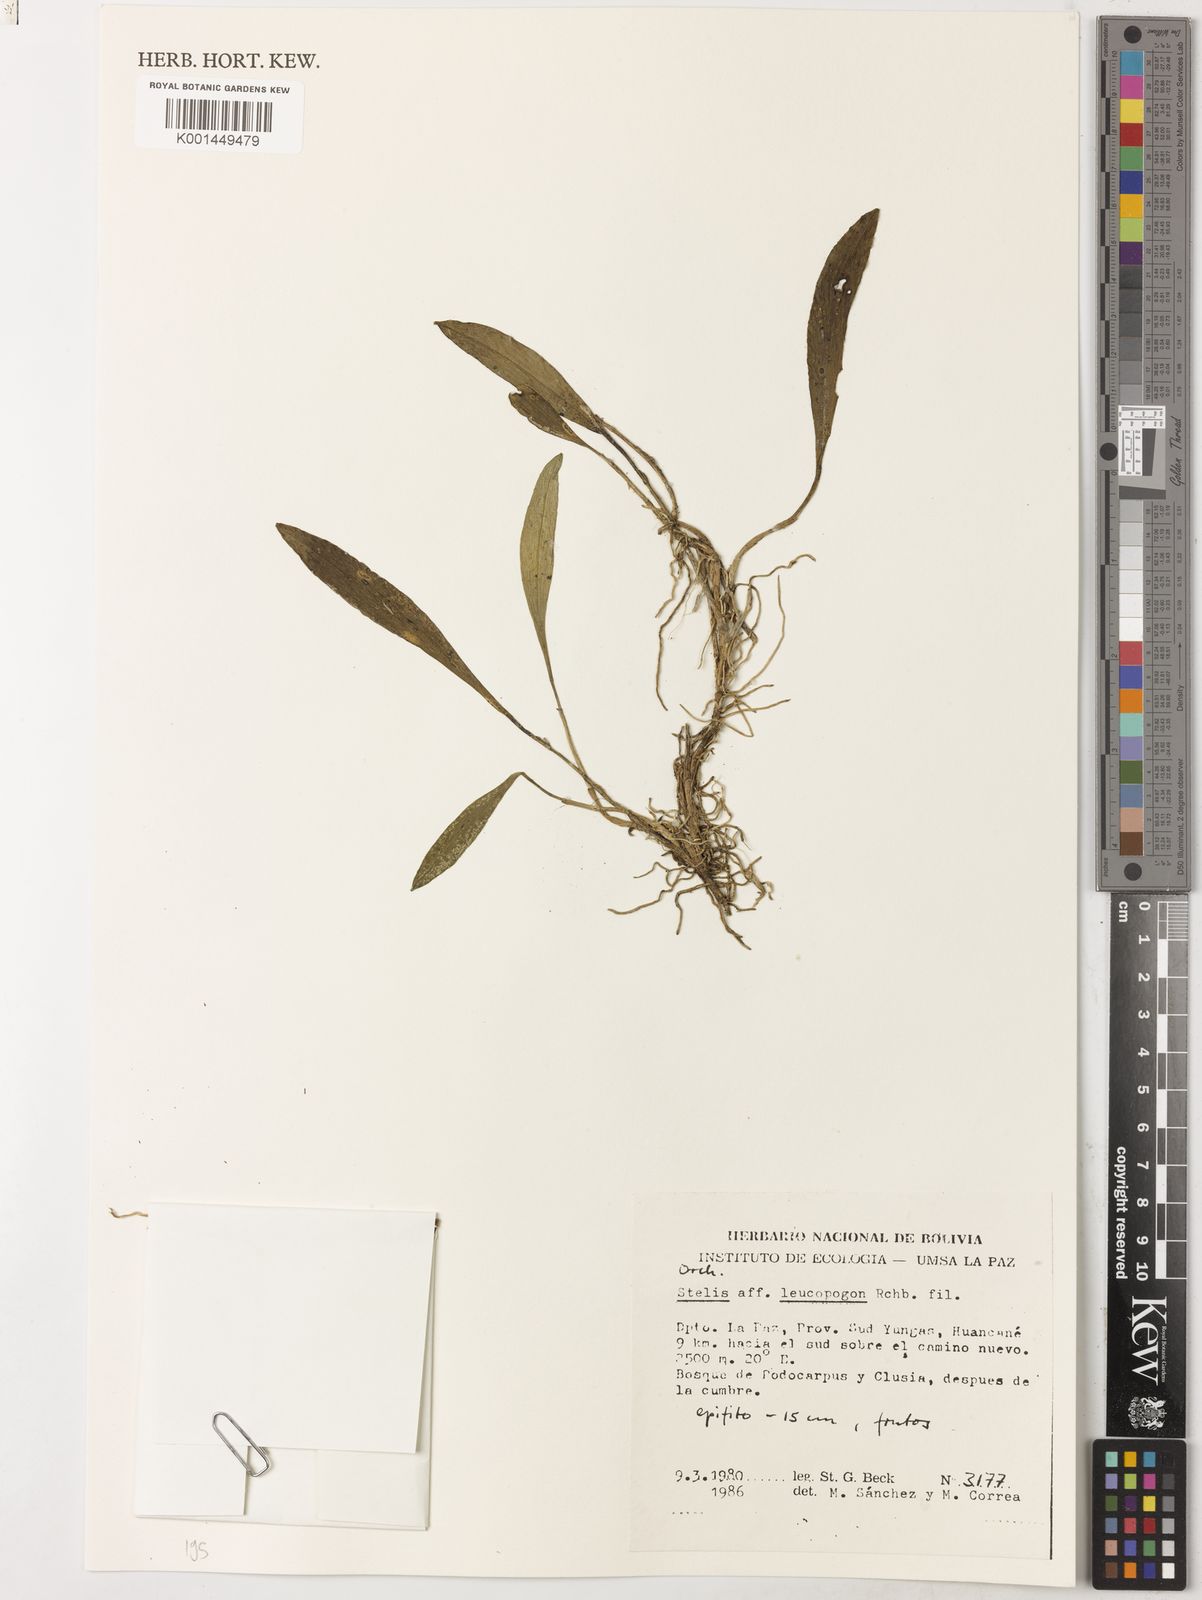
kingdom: Plantae
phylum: Tracheophyta
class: Liliopsida
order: Asparagales
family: Orchidaceae
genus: Stelis
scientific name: Stelis superbiens
